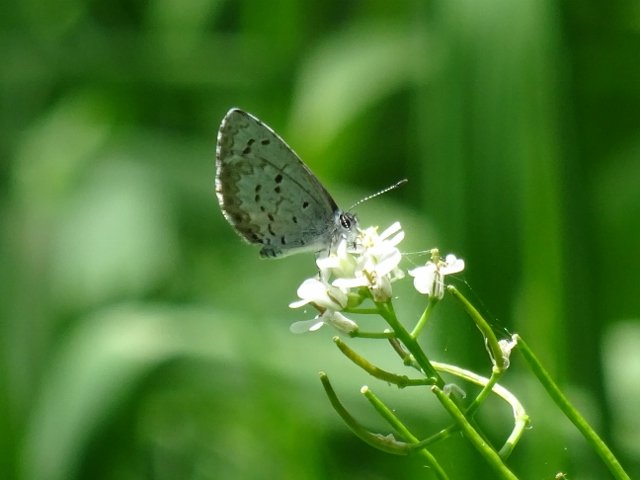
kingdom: Animalia
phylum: Arthropoda
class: Insecta
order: Lepidoptera
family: Lycaenidae
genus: Celastrina
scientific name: Celastrina
